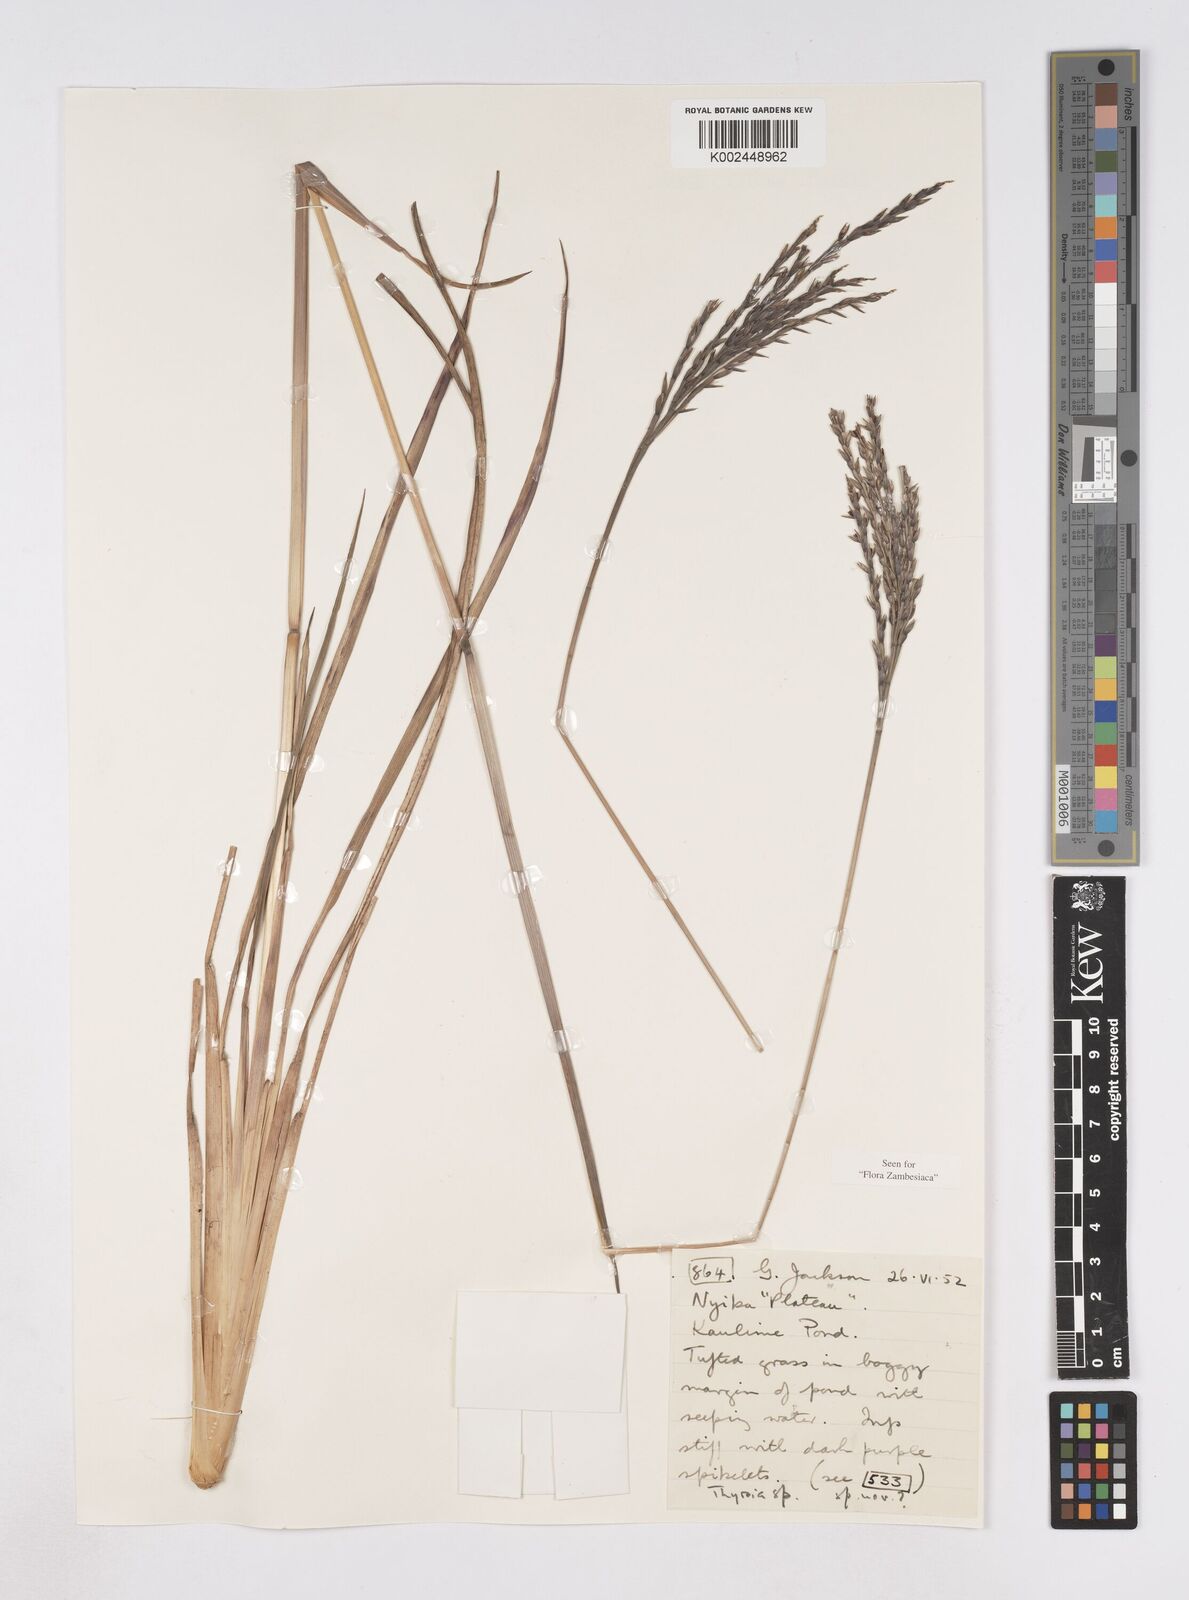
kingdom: Plantae
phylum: Tracheophyta
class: Liliopsida
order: Poales
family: Poaceae
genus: Thyrsia
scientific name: Thyrsia schliebenii
